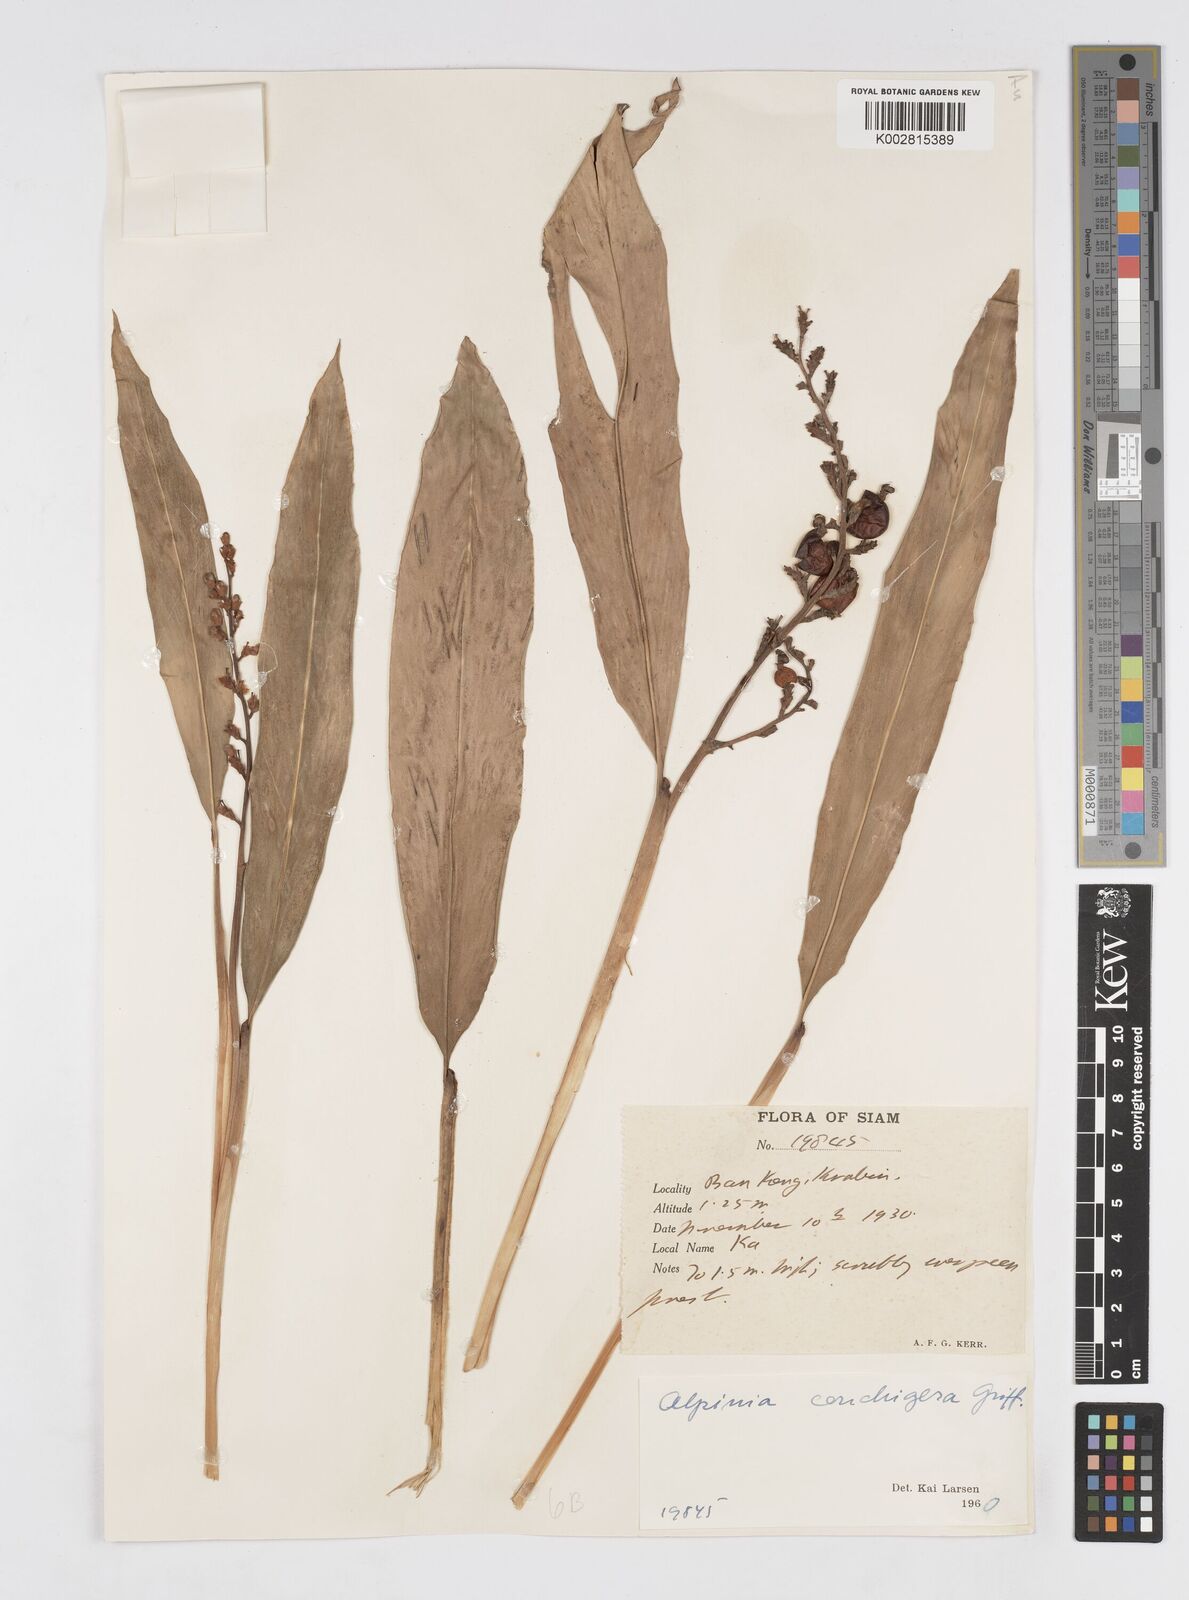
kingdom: Plantae
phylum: Tracheophyta
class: Liliopsida
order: Zingiberales
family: Zingiberaceae
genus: Alpinia
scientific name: Alpinia conchigera
